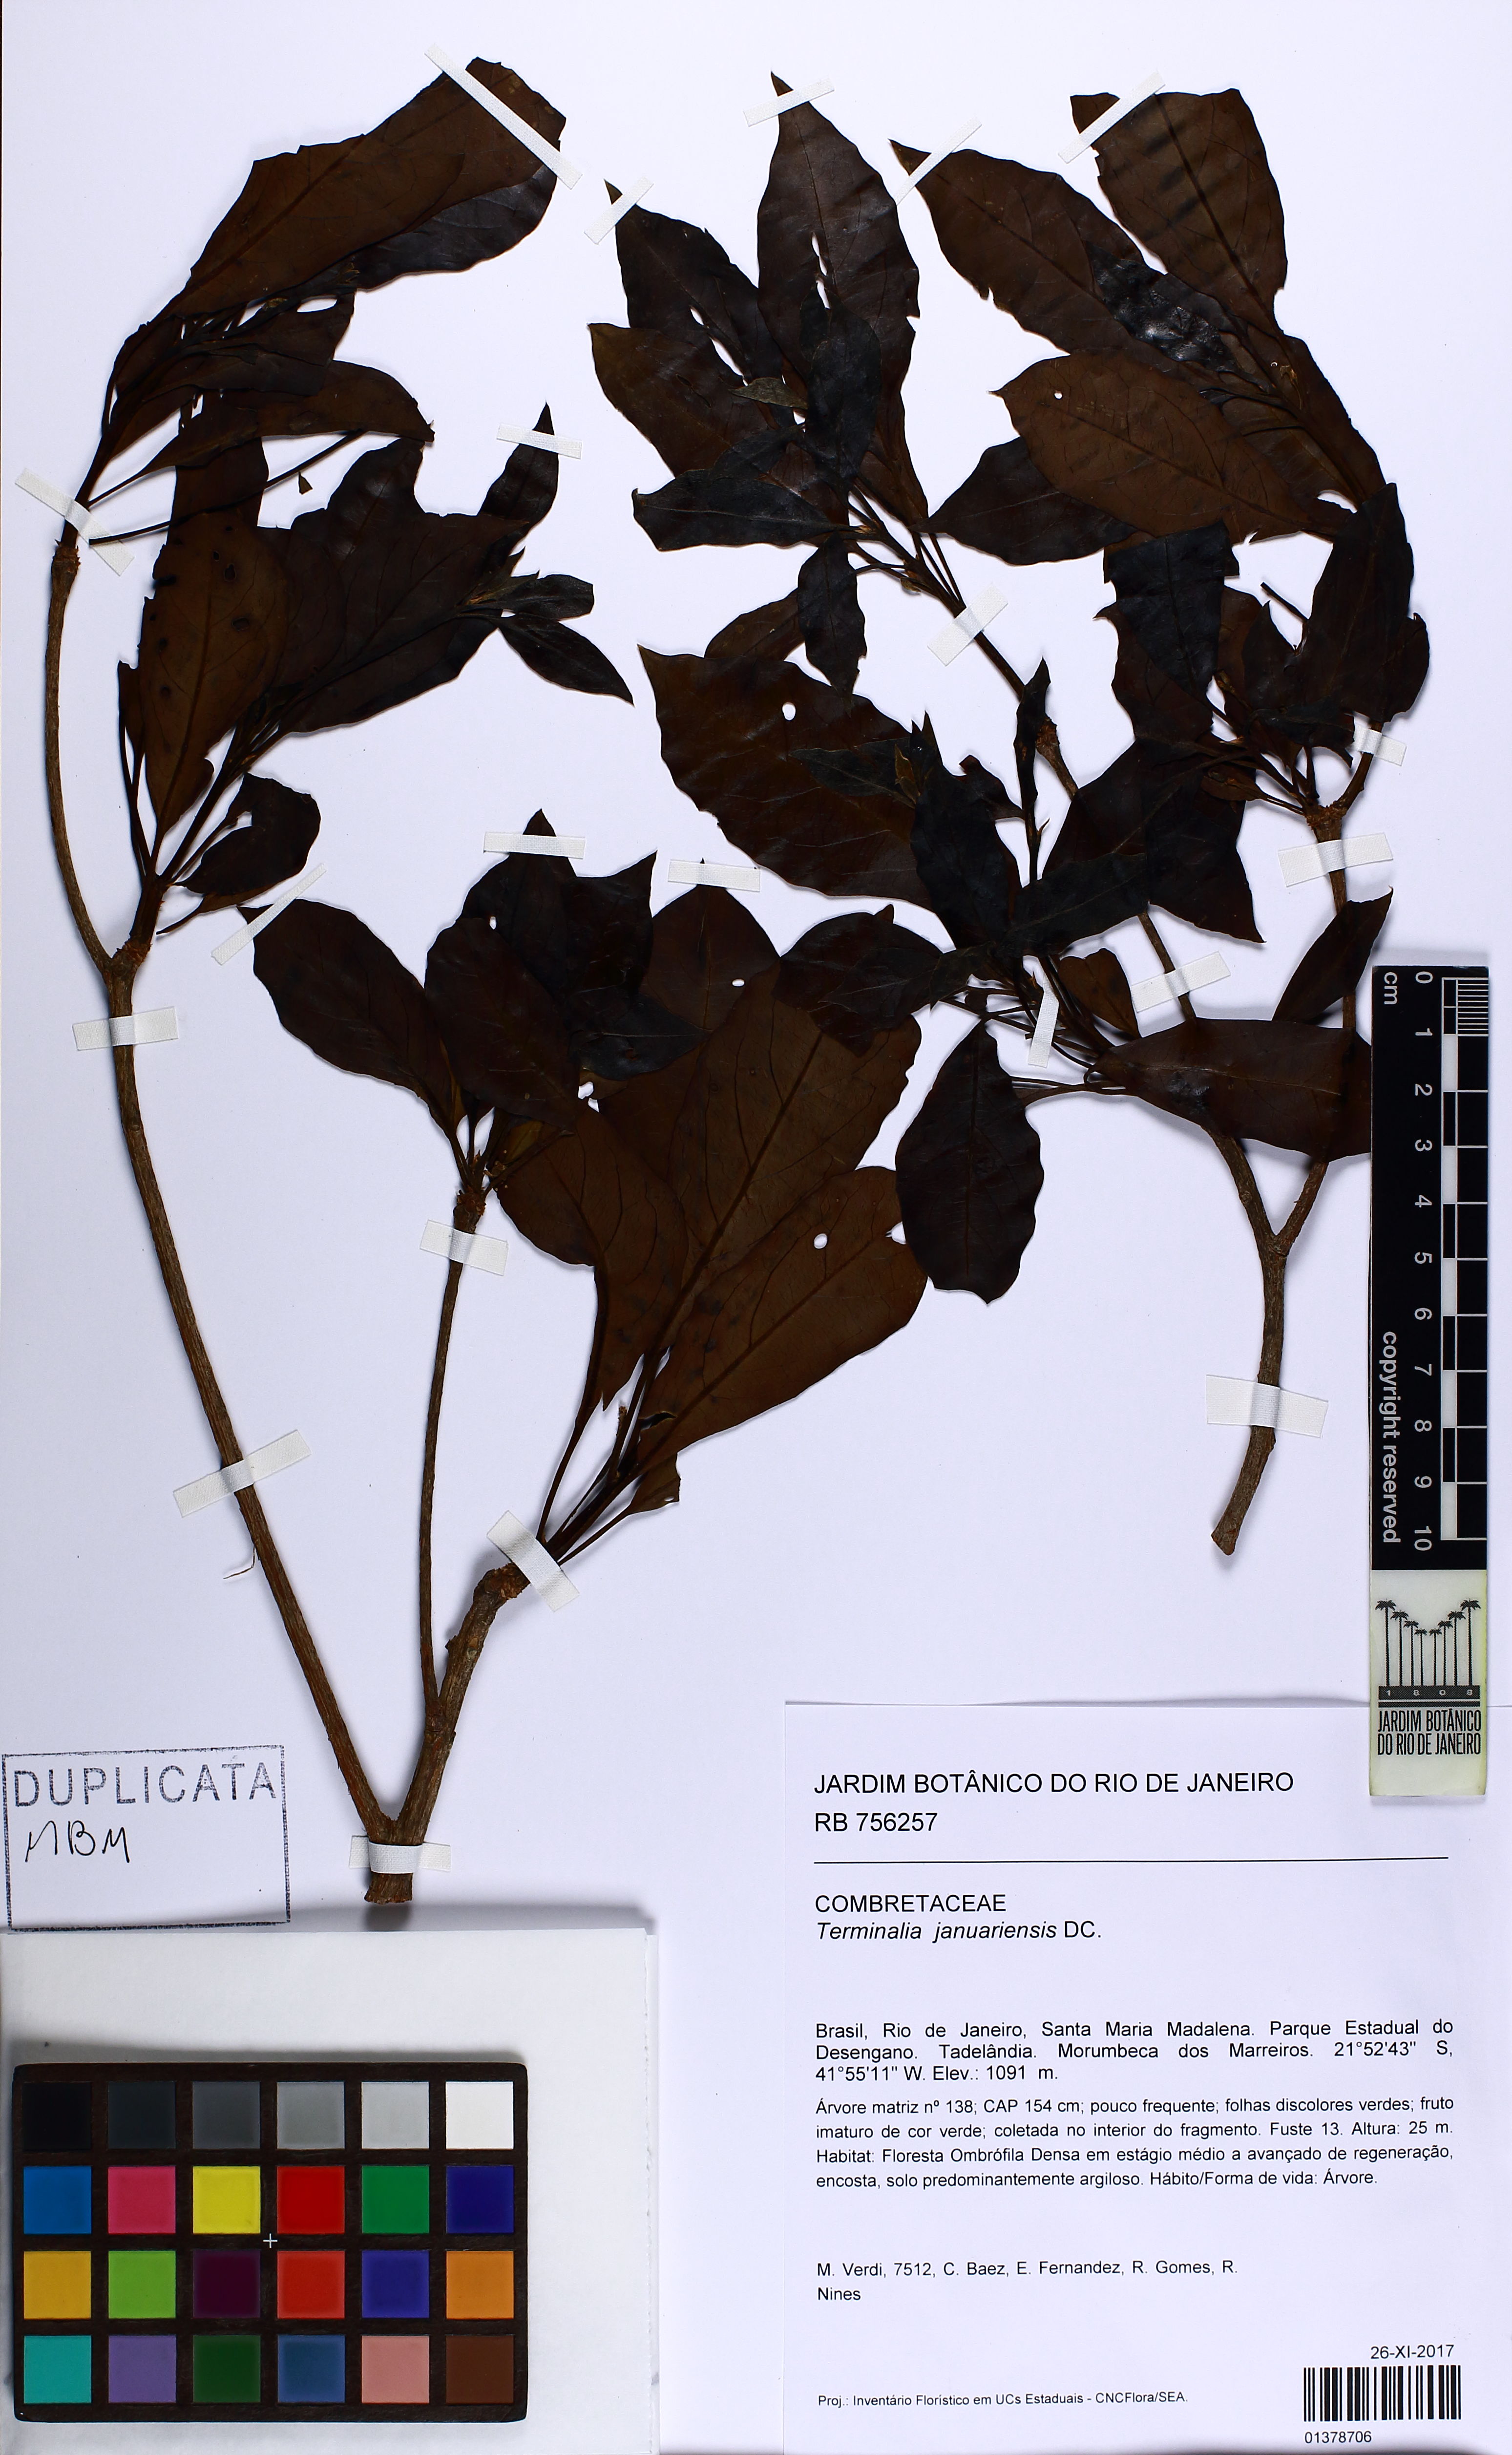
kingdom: Plantae
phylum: Tracheophyta
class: Magnoliopsida
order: Myrtales
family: Combretaceae
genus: Terminalia
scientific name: Terminalia januariensis
